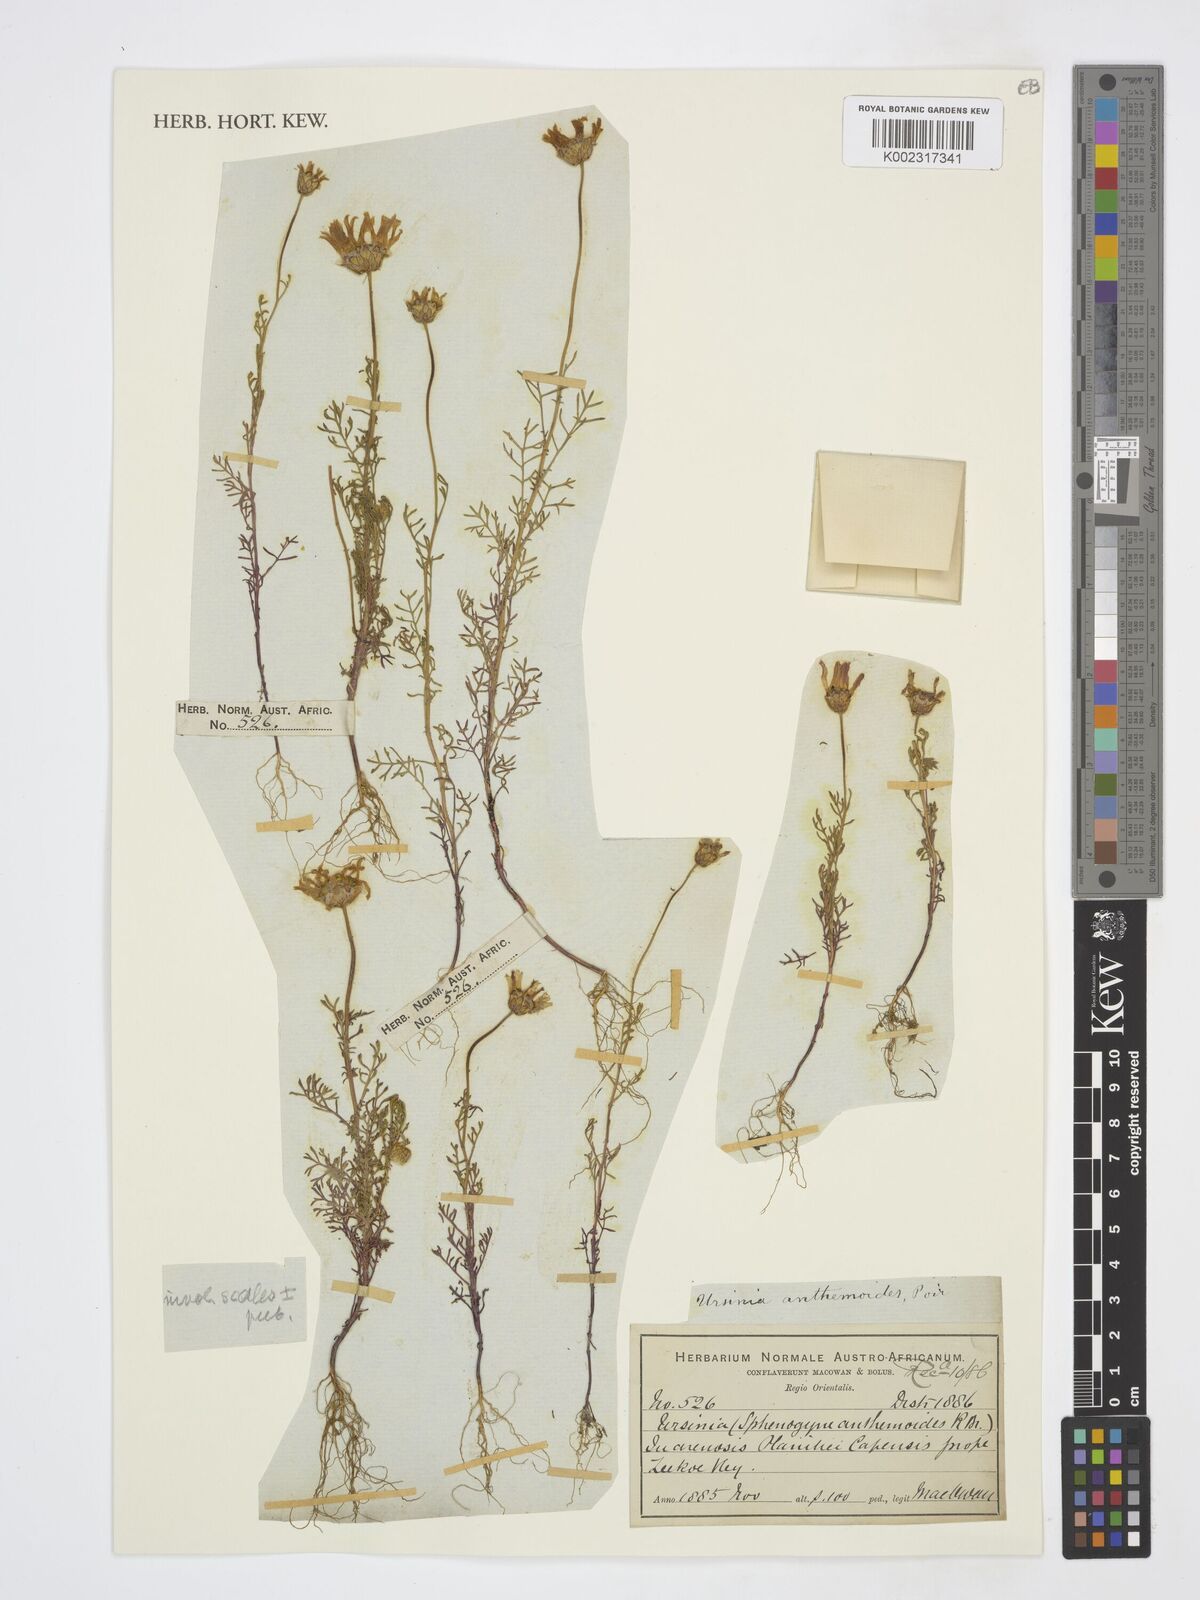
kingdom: Plantae
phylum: Tracheophyta
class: Magnoliopsida
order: Asterales
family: Asteraceae
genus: Ursinia
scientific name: Ursinia anthemoides
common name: Ursinia
